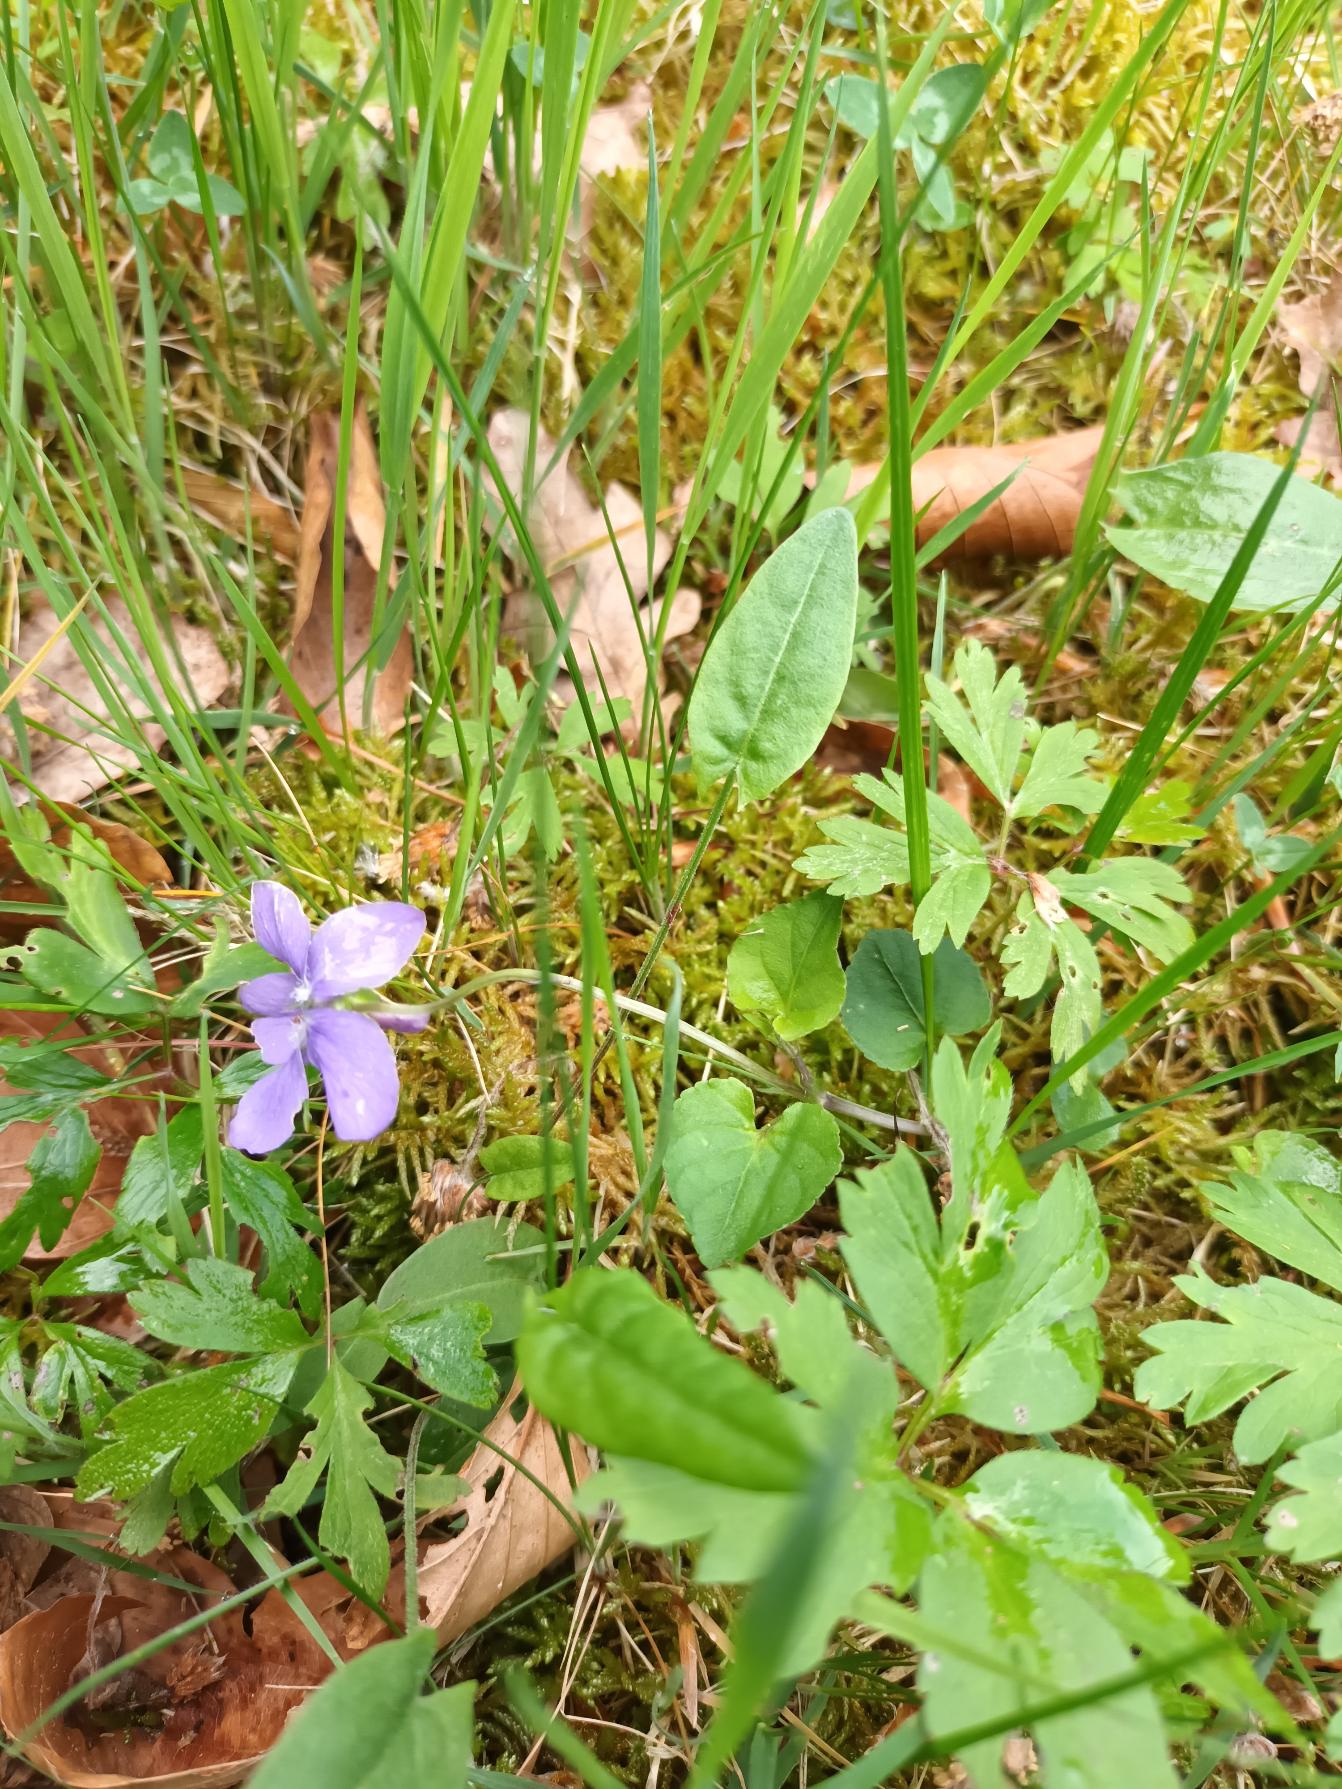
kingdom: Plantae
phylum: Tracheophyta
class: Magnoliopsida
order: Malpighiales
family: Violaceae
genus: Viola
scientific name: Viola riviniana
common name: Krat-viol
